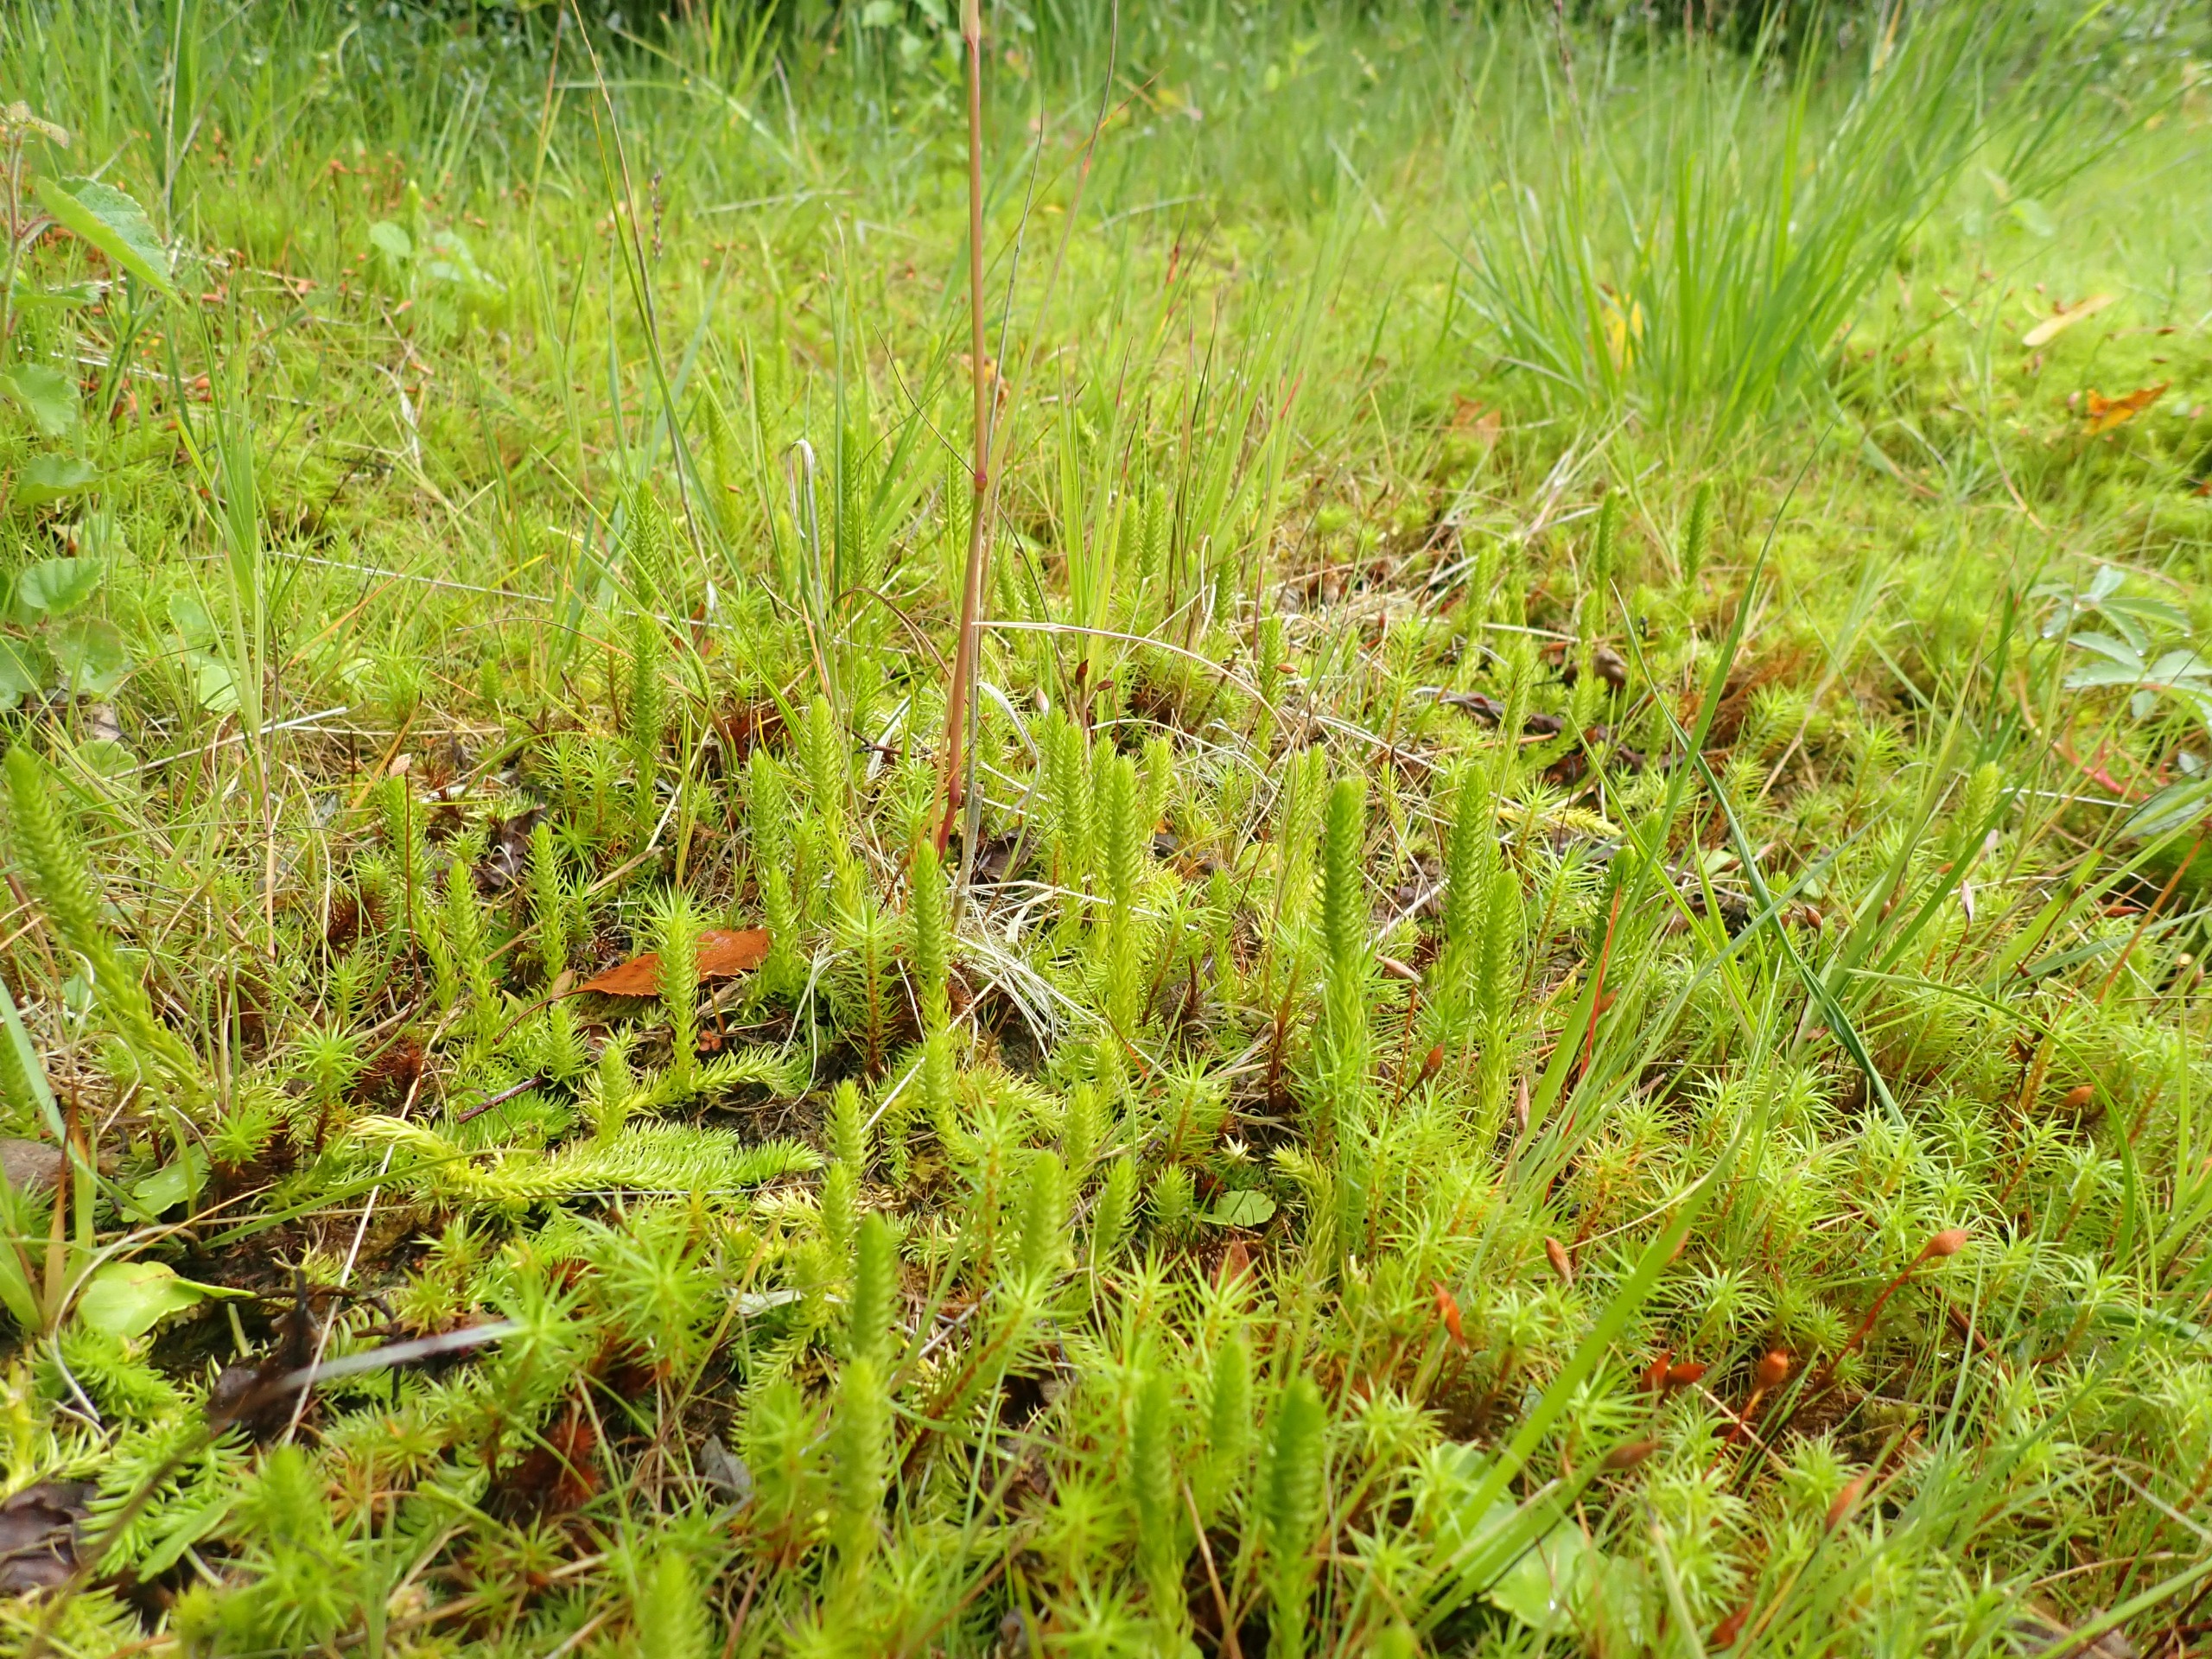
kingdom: Plantae
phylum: Tracheophyta
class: Lycopodiopsida
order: Lycopodiales
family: Lycopodiaceae
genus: Lycopodiella
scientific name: Lycopodiella inundata
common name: Liden ulvefod
